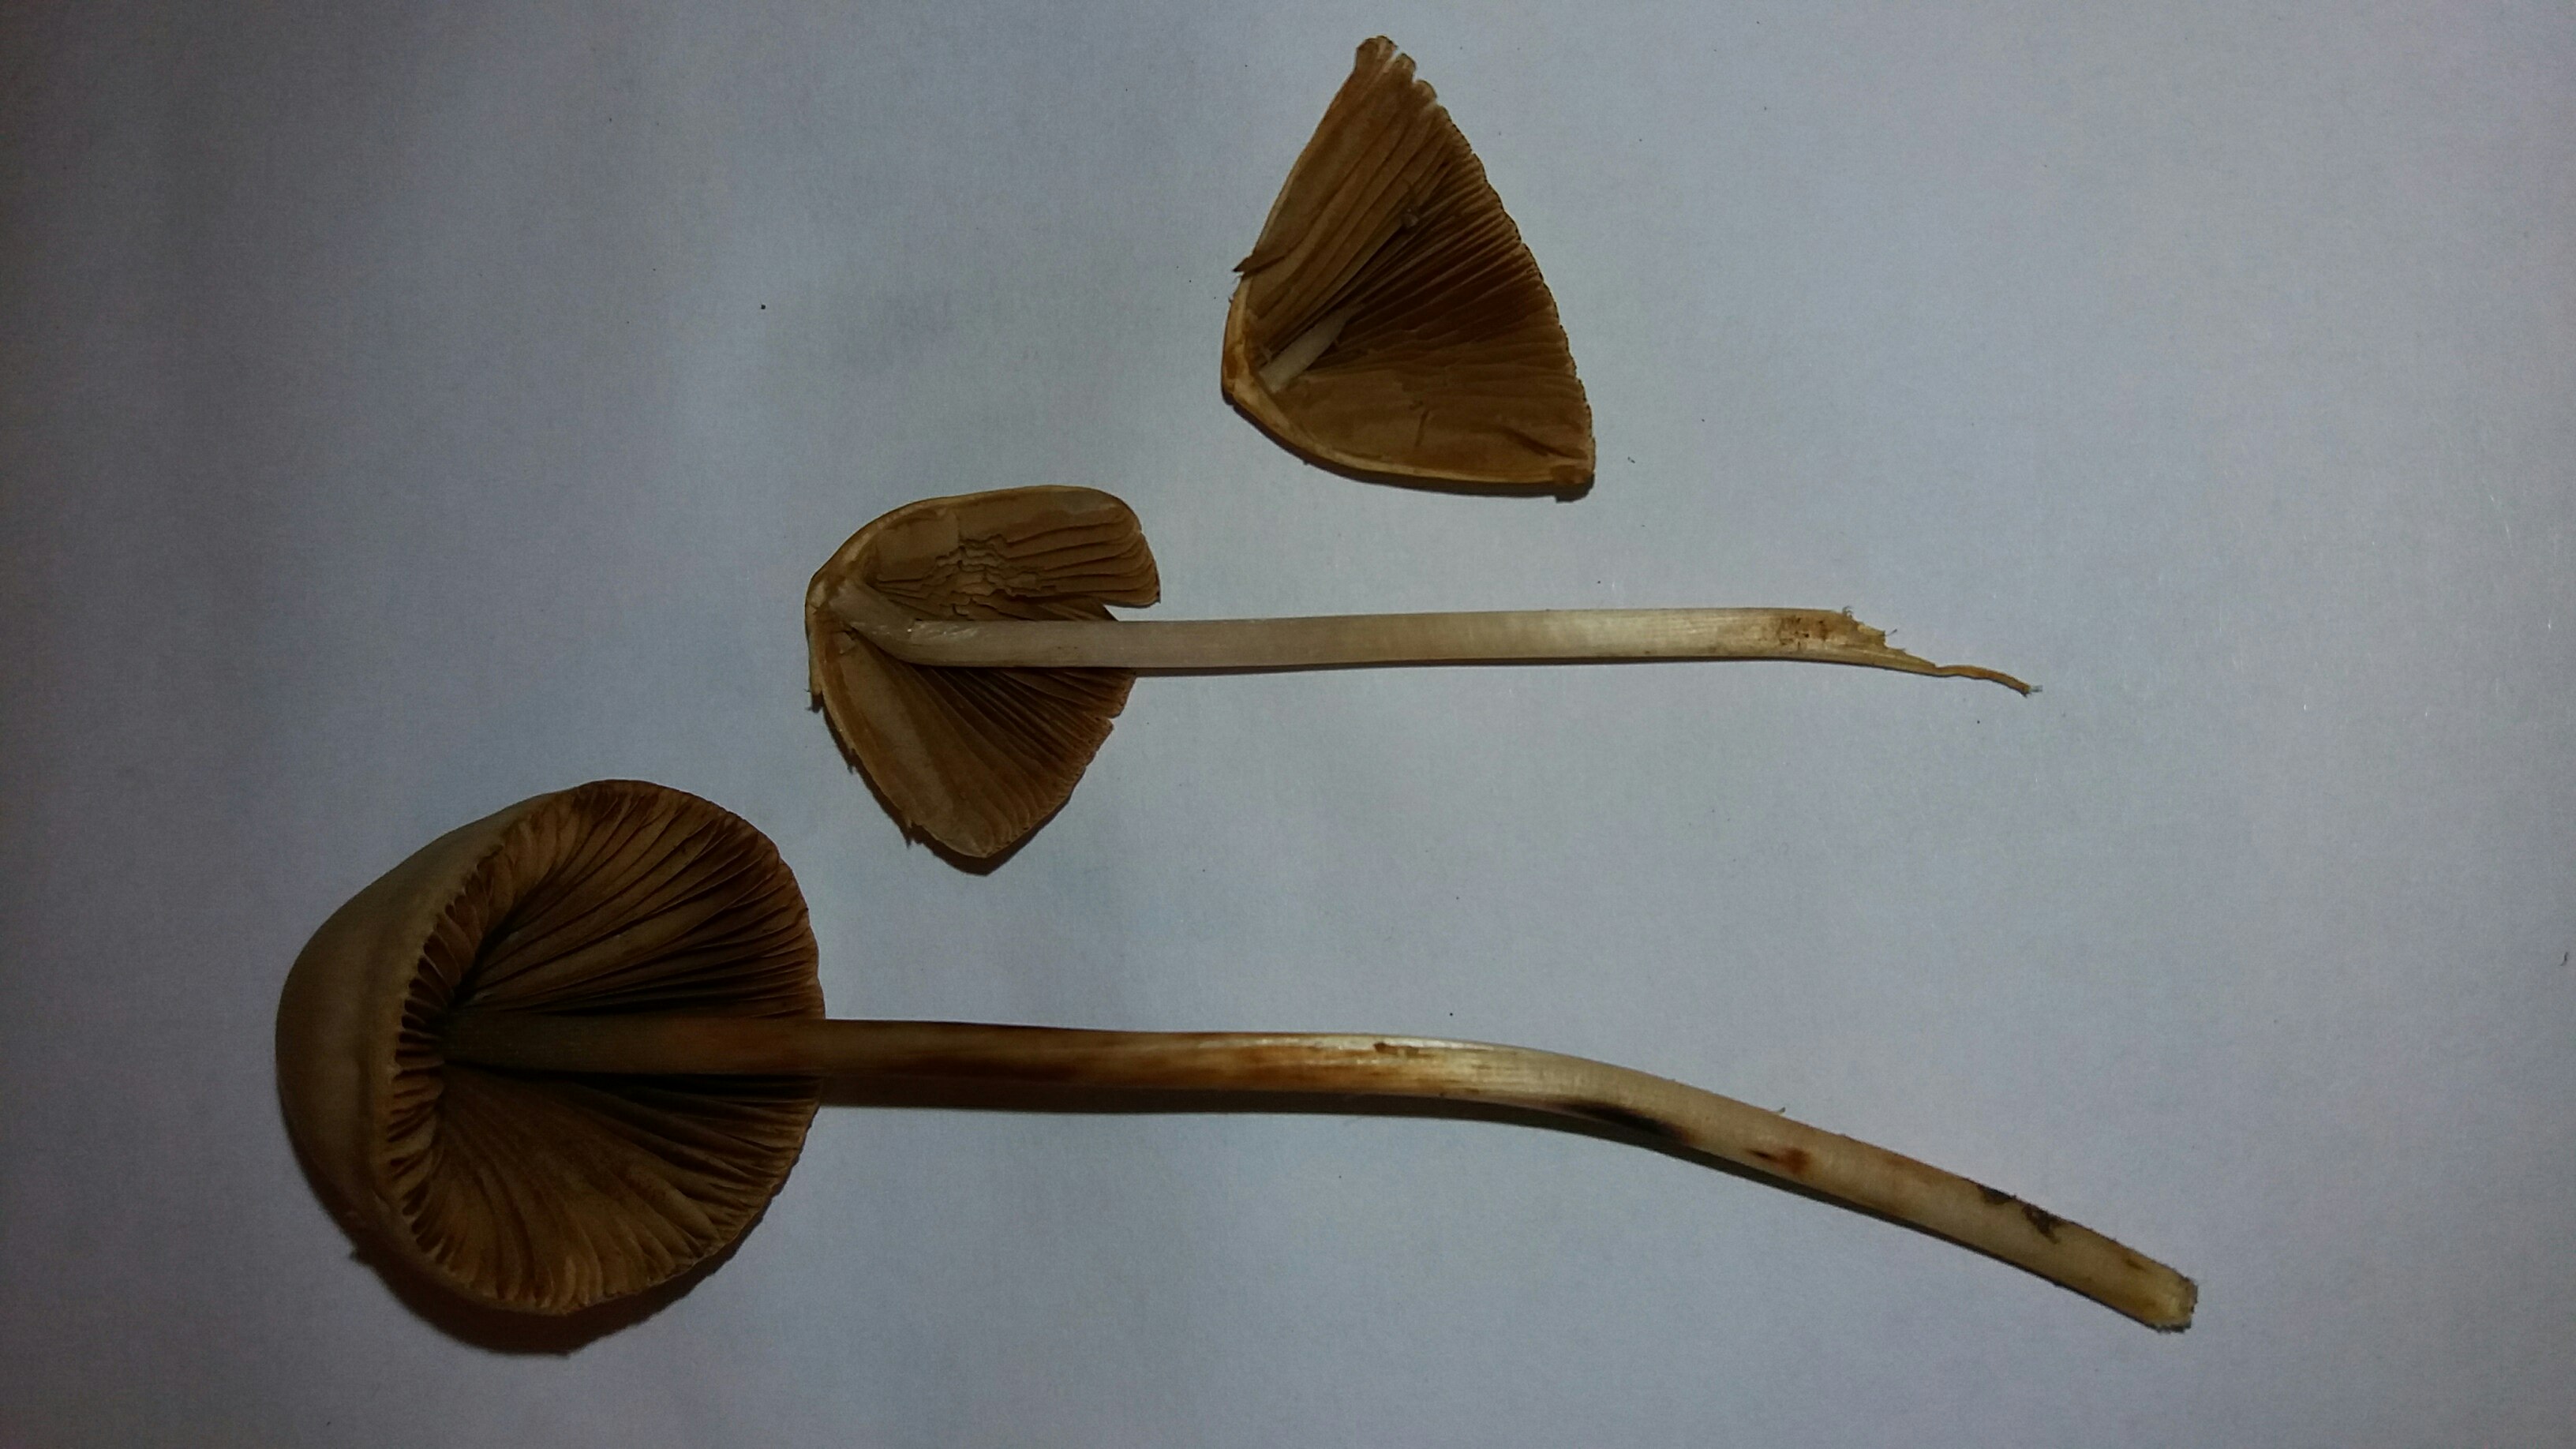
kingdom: Fungi
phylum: Basidiomycota
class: Agaricomycetes
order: Agaricales
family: Bolbitiaceae
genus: Conocybe
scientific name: Conocybe
